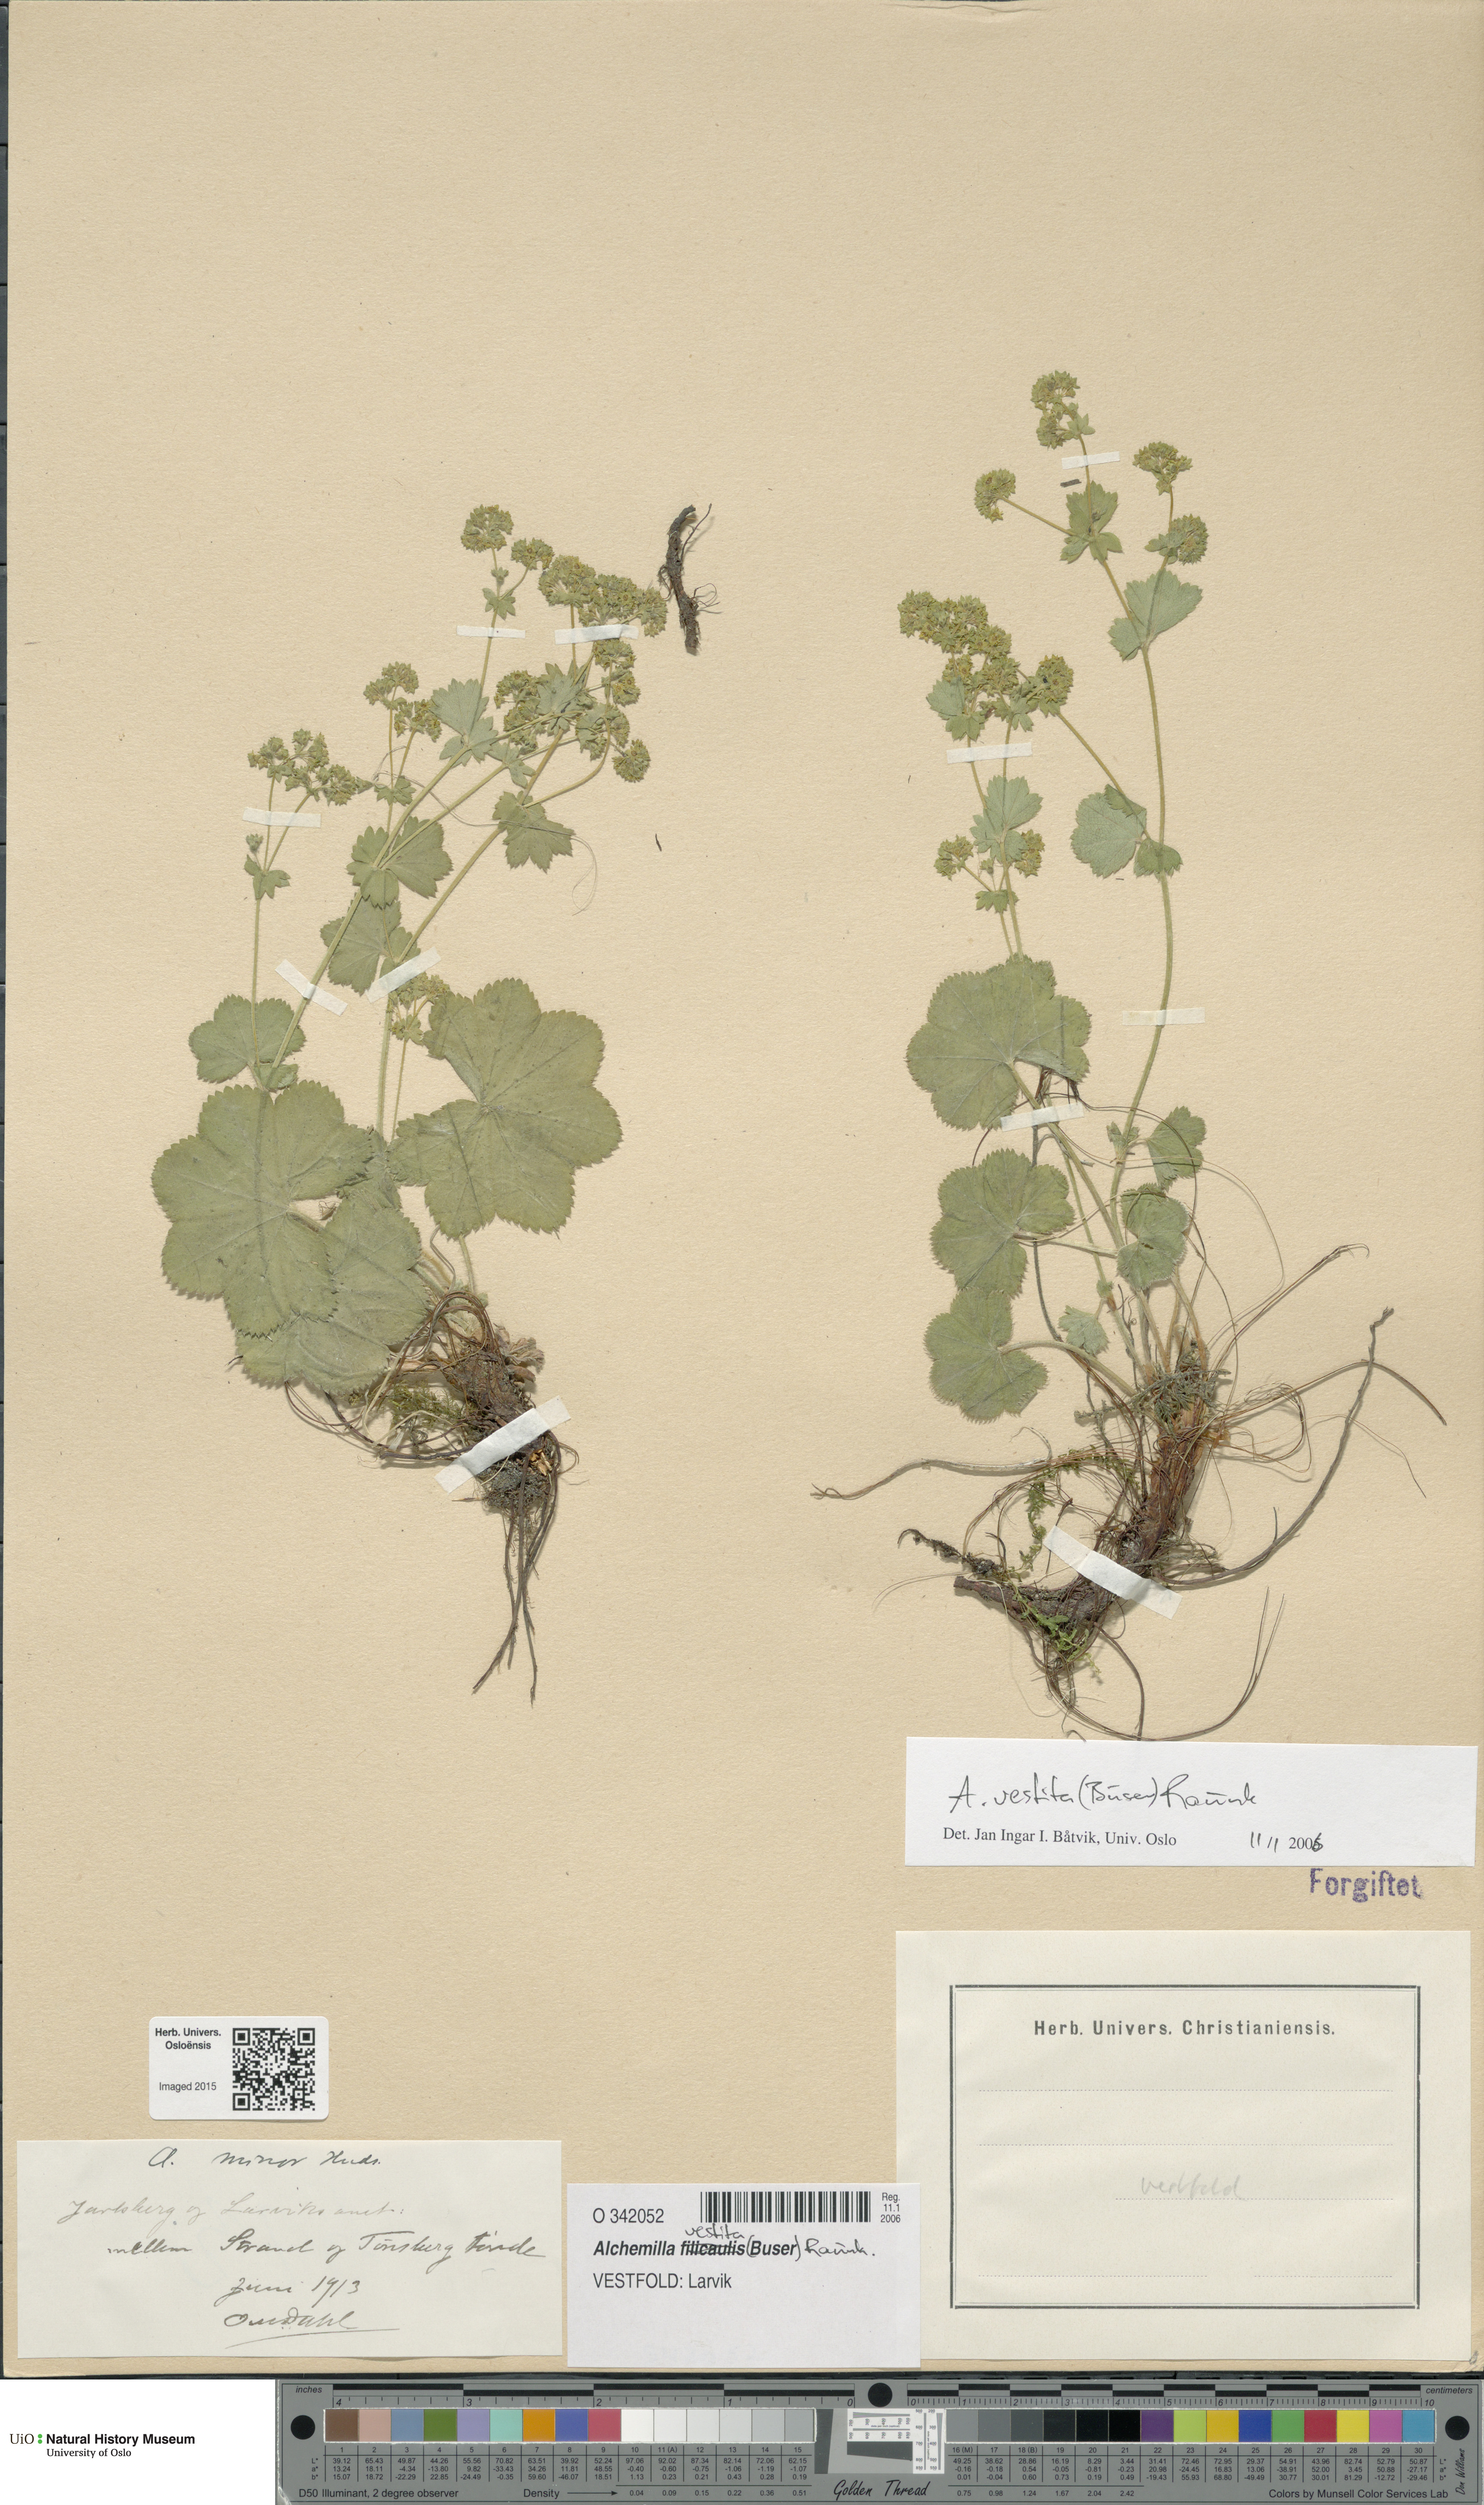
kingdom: Plantae
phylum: Tracheophyta
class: Magnoliopsida
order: Rosales
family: Rosaceae
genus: Alchemilla
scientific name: Alchemilla filicaulis
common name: Hairy lady's-mantle
